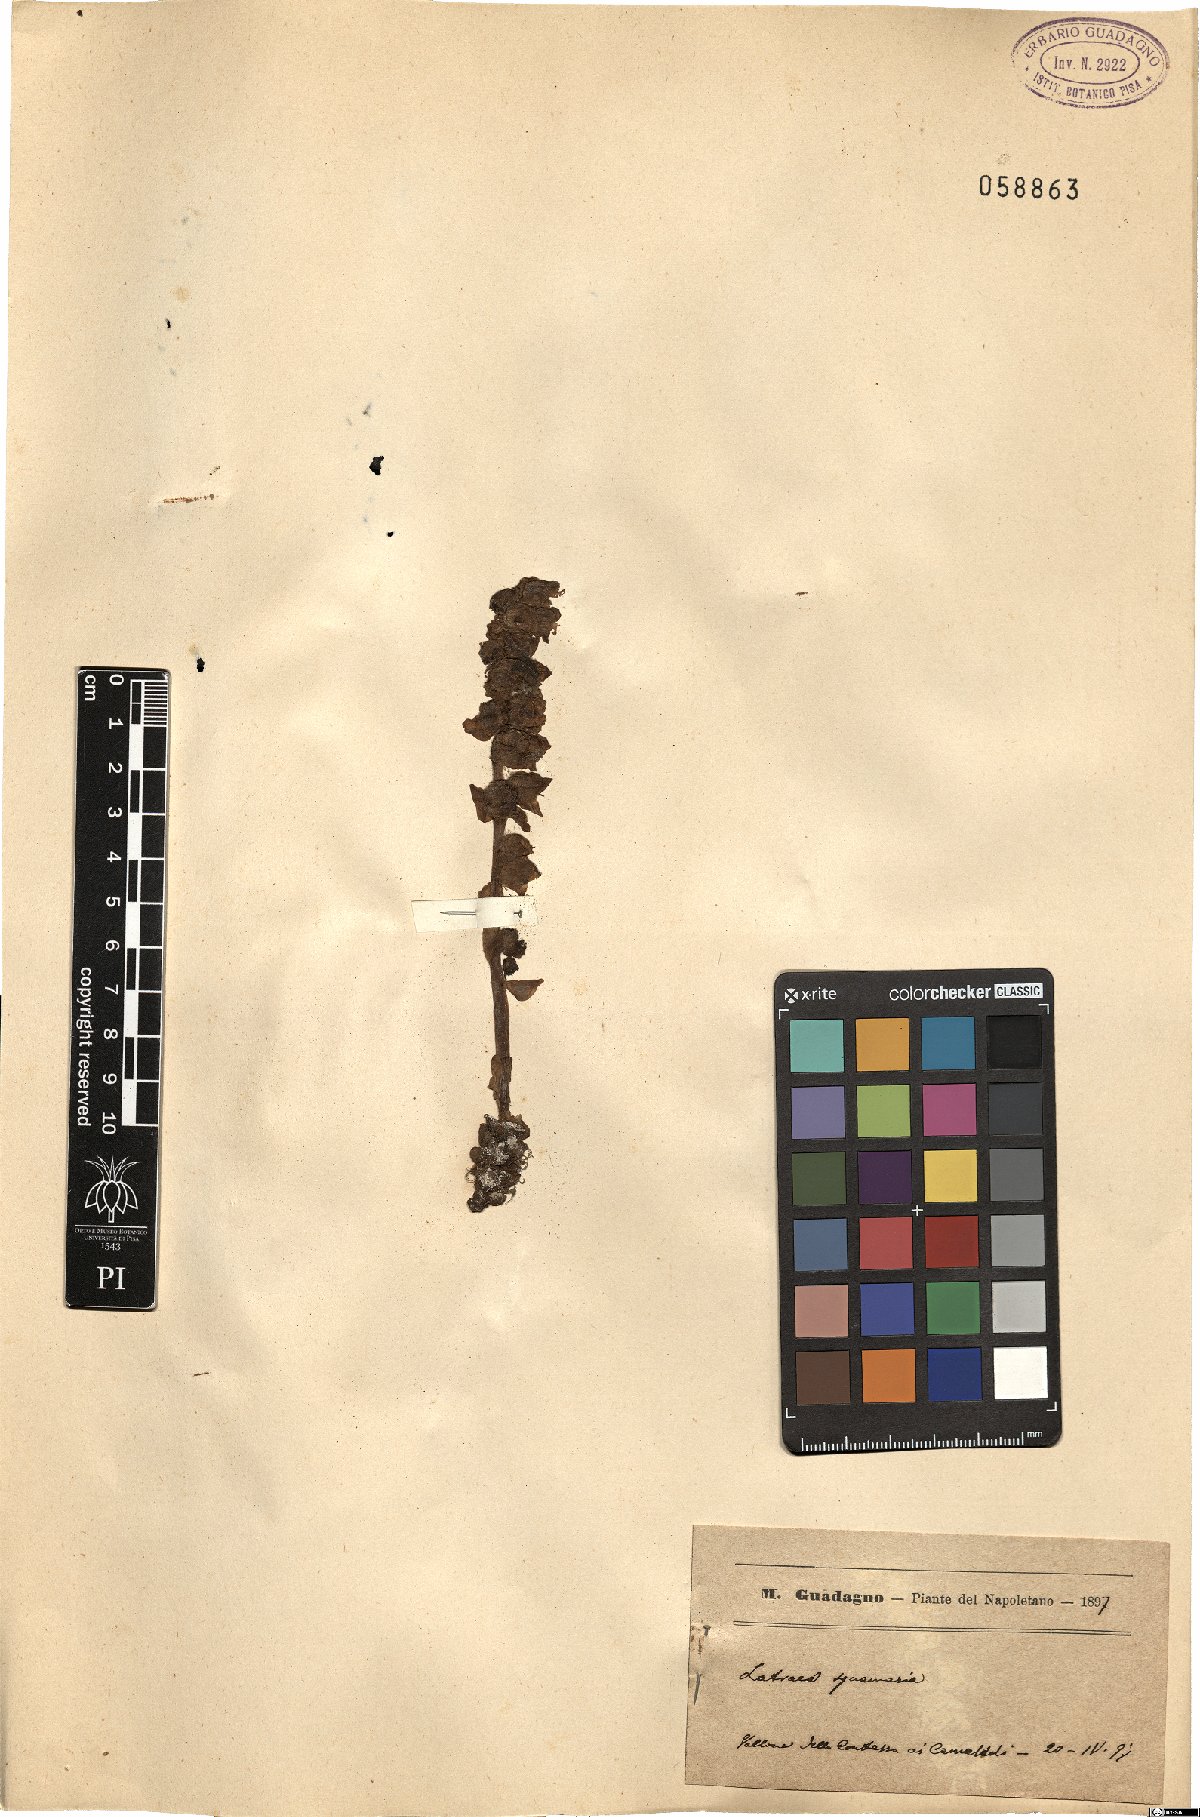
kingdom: Plantae
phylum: Tracheophyta
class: Magnoliopsida
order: Lamiales
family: Orobanchaceae
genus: Lathraea
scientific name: Lathraea squamaria
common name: Toothwort
